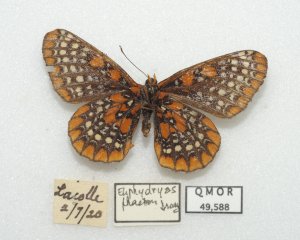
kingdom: Animalia
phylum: Arthropoda
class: Insecta
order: Lepidoptera
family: Nymphalidae
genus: Euphydryas
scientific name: Euphydryas phaeton
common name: Baltimore Checkerspot
